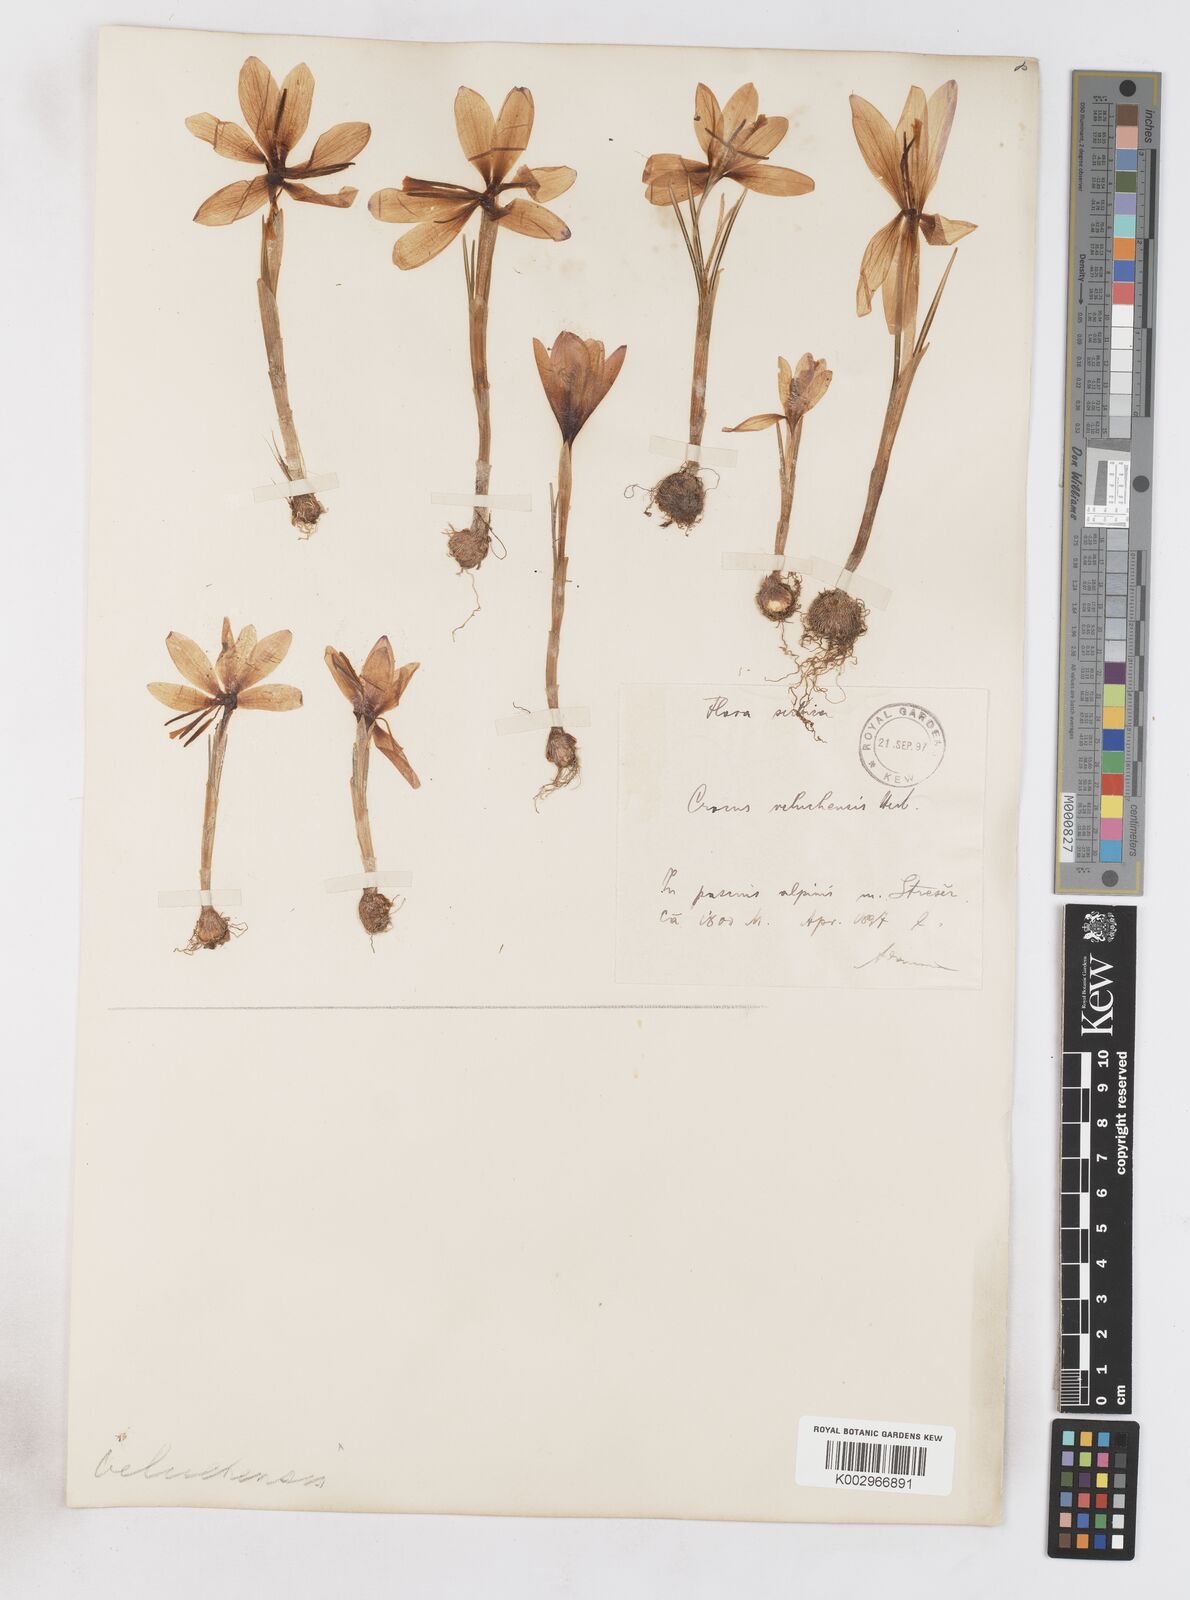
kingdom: Plantae
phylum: Tracheophyta
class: Liliopsida
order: Asparagales
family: Iridaceae
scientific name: Iridaceae
